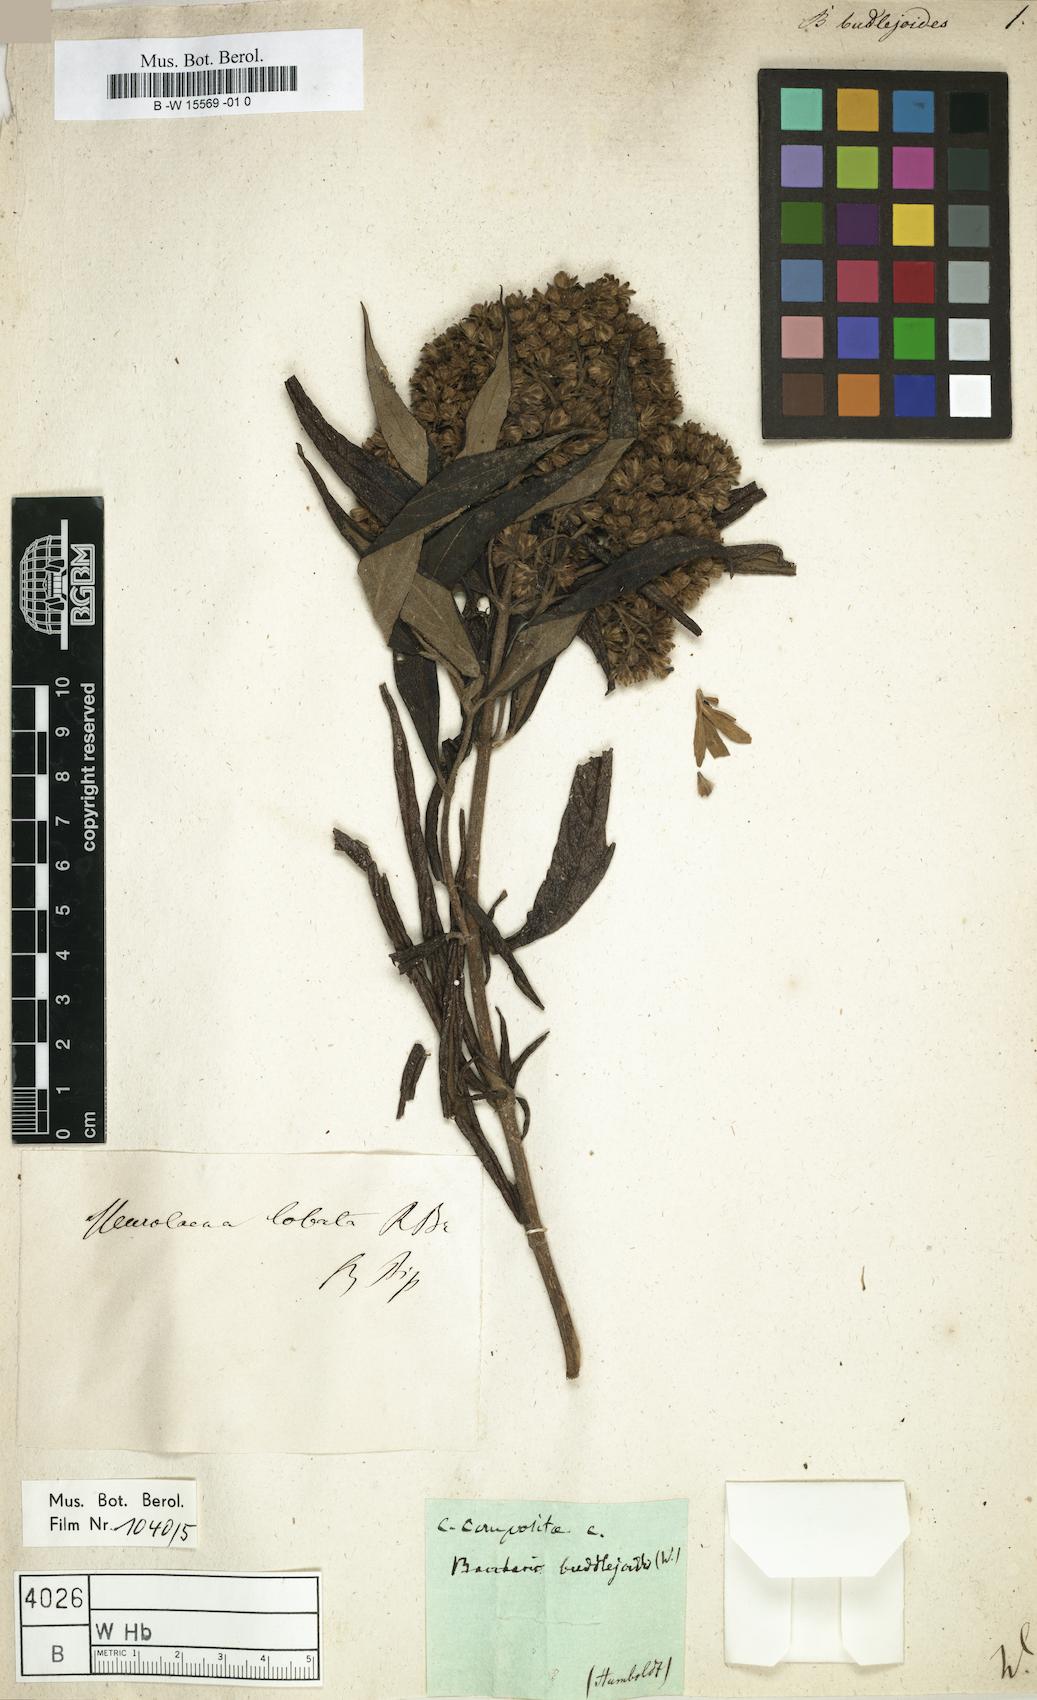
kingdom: Plantae
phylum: Tracheophyta
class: Magnoliopsida
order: Asterales
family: Asteraceae
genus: Baccharis
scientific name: Baccharis salicifolia
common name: Sticky baccharis
